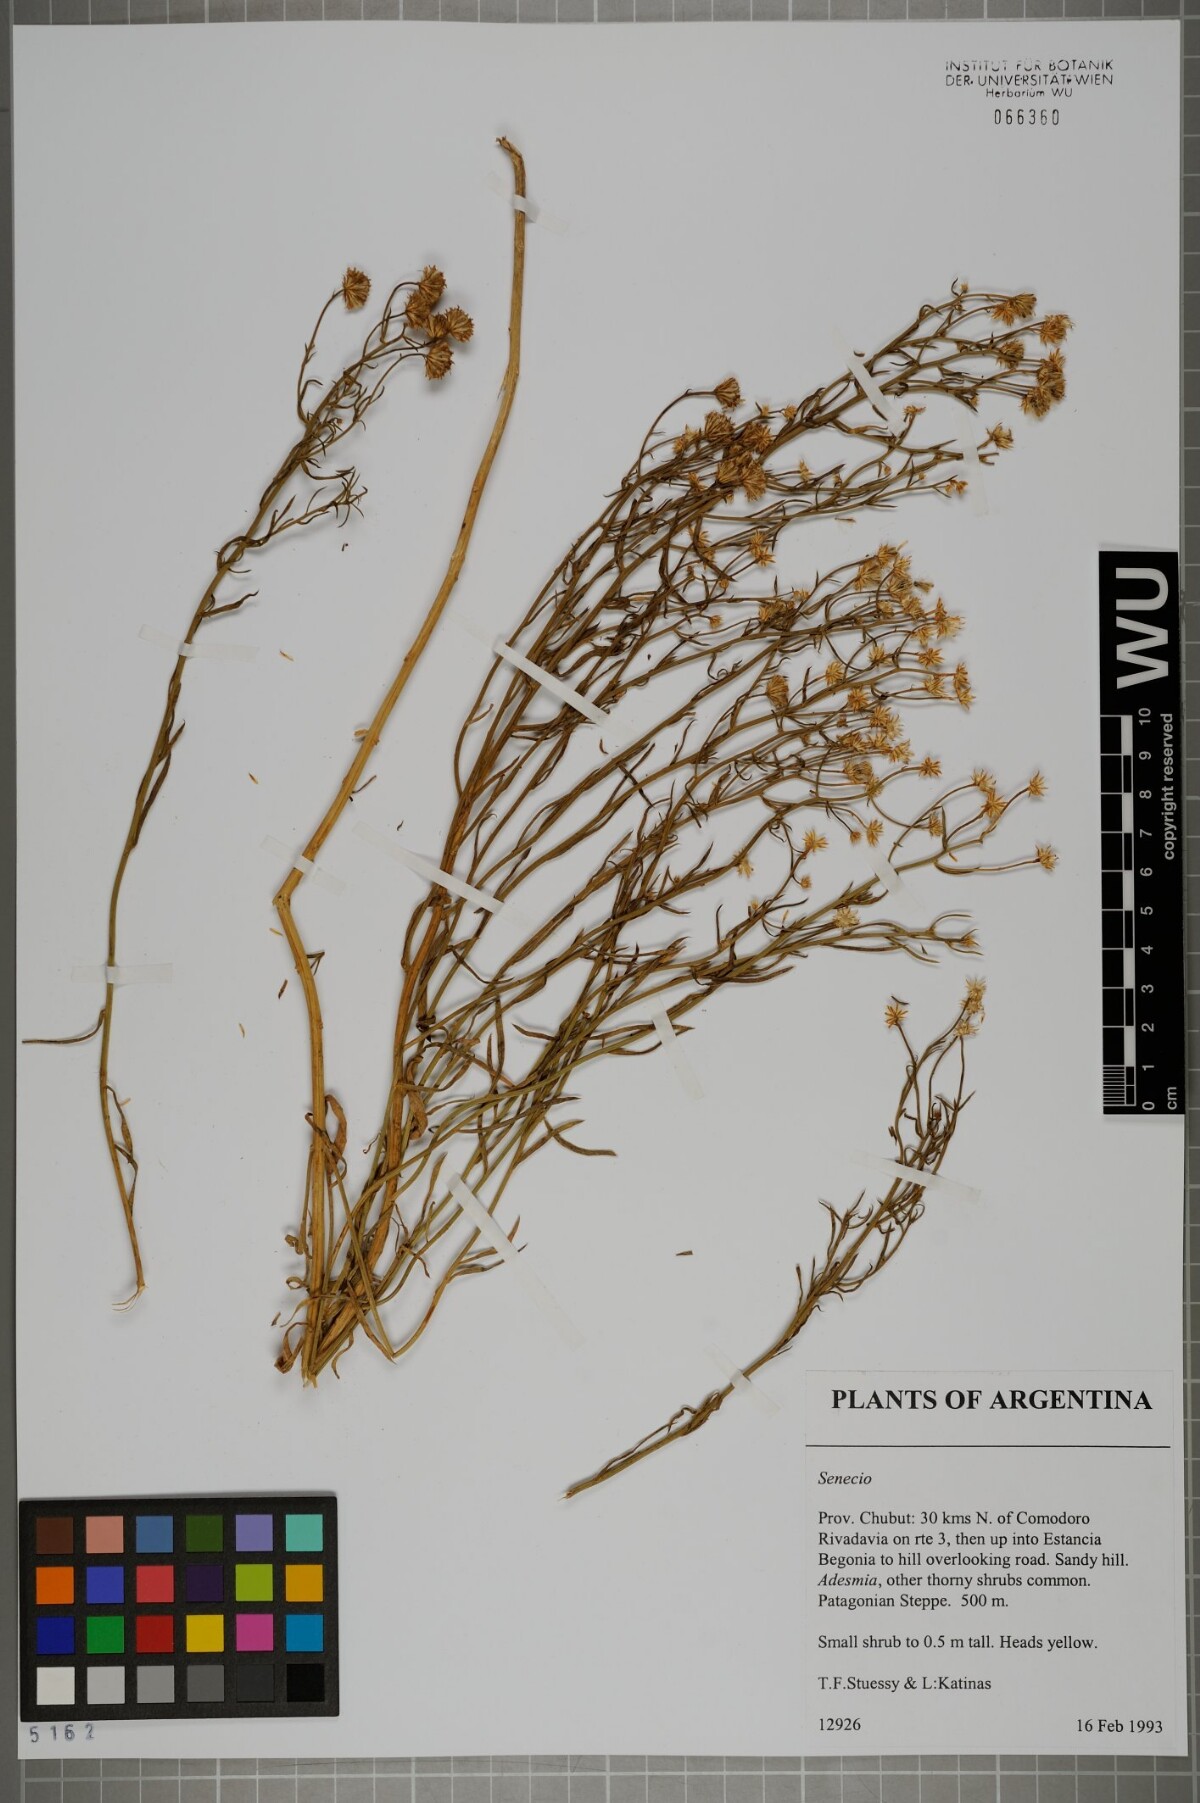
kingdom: Plantae
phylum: Tracheophyta
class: Magnoliopsida
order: Asterales
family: Asteraceae
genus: Senecio
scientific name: Senecio
